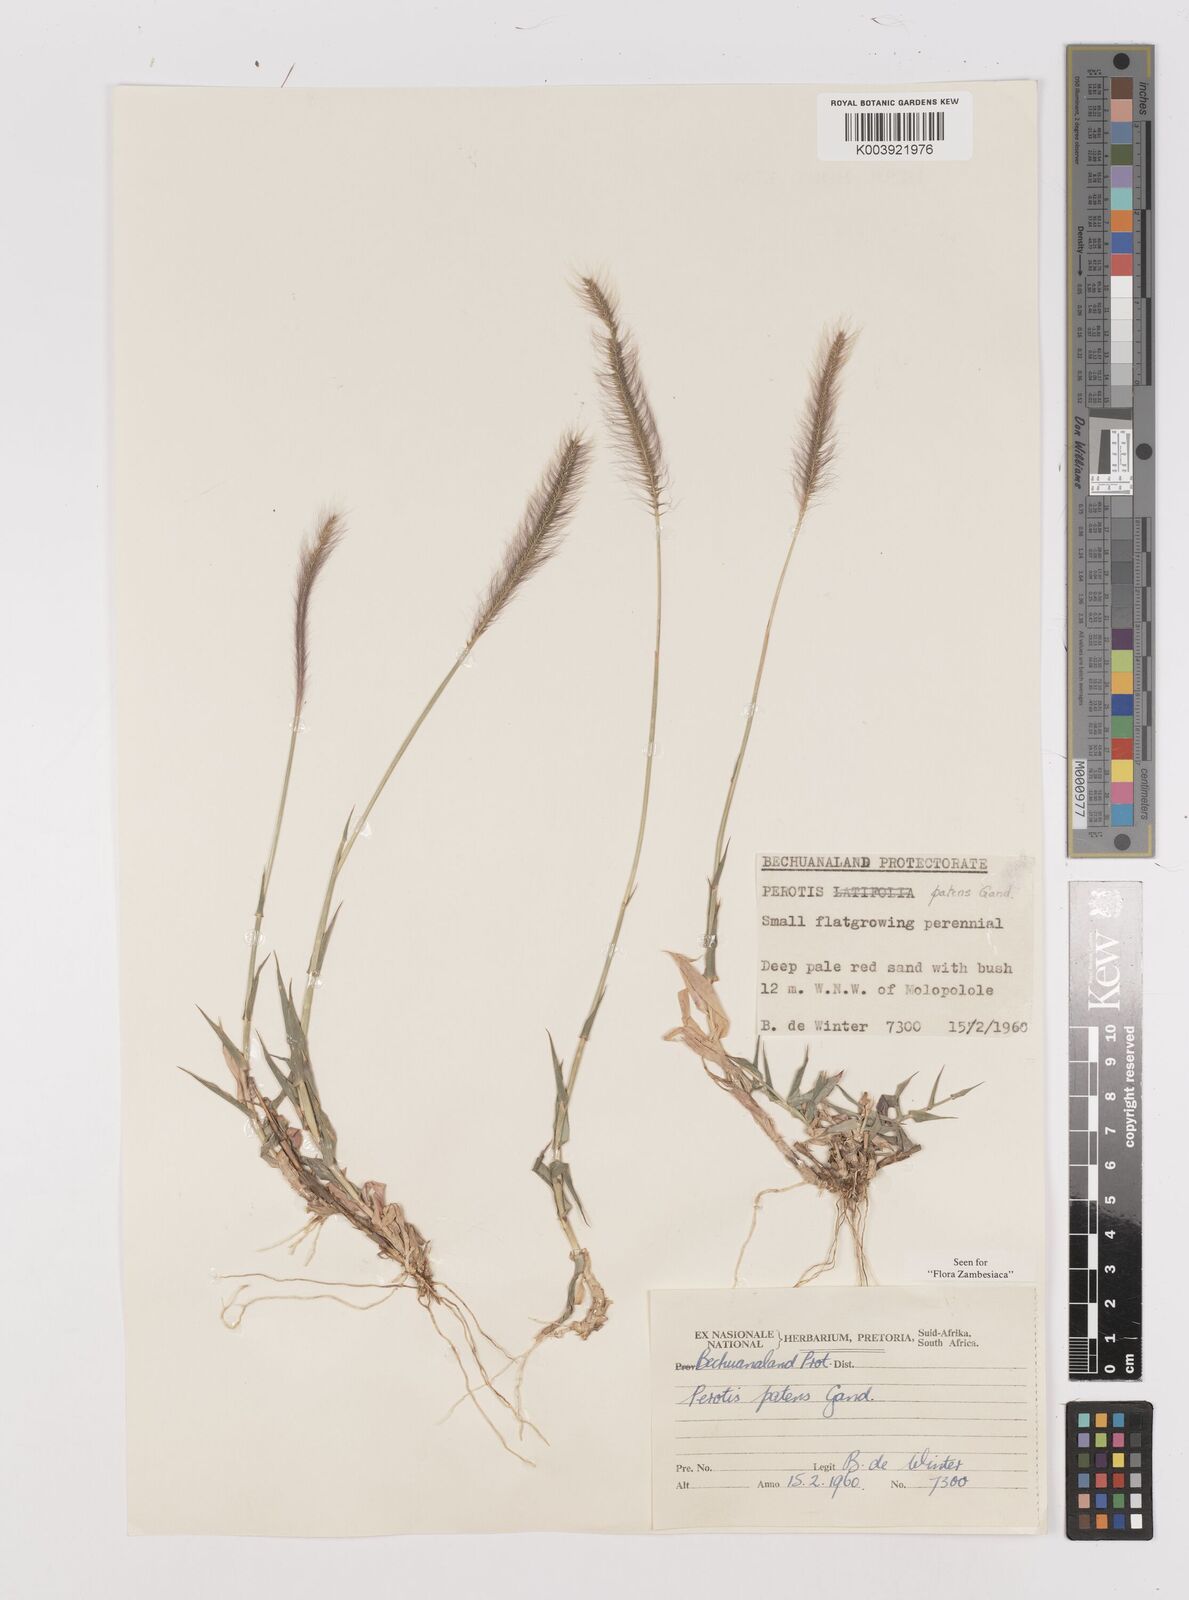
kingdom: Plantae
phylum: Tracheophyta
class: Liliopsida
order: Poales
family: Poaceae
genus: Perotis
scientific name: Perotis patens
